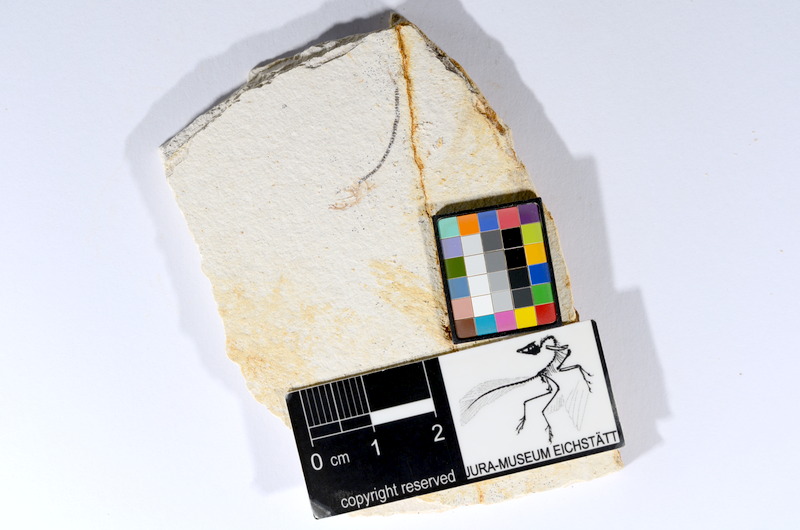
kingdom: Animalia
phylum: Chordata
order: Salmoniformes
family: Orthogonikleithridae
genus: Orthogonikleithrus
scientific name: Orthogonikleithrus hoelli
